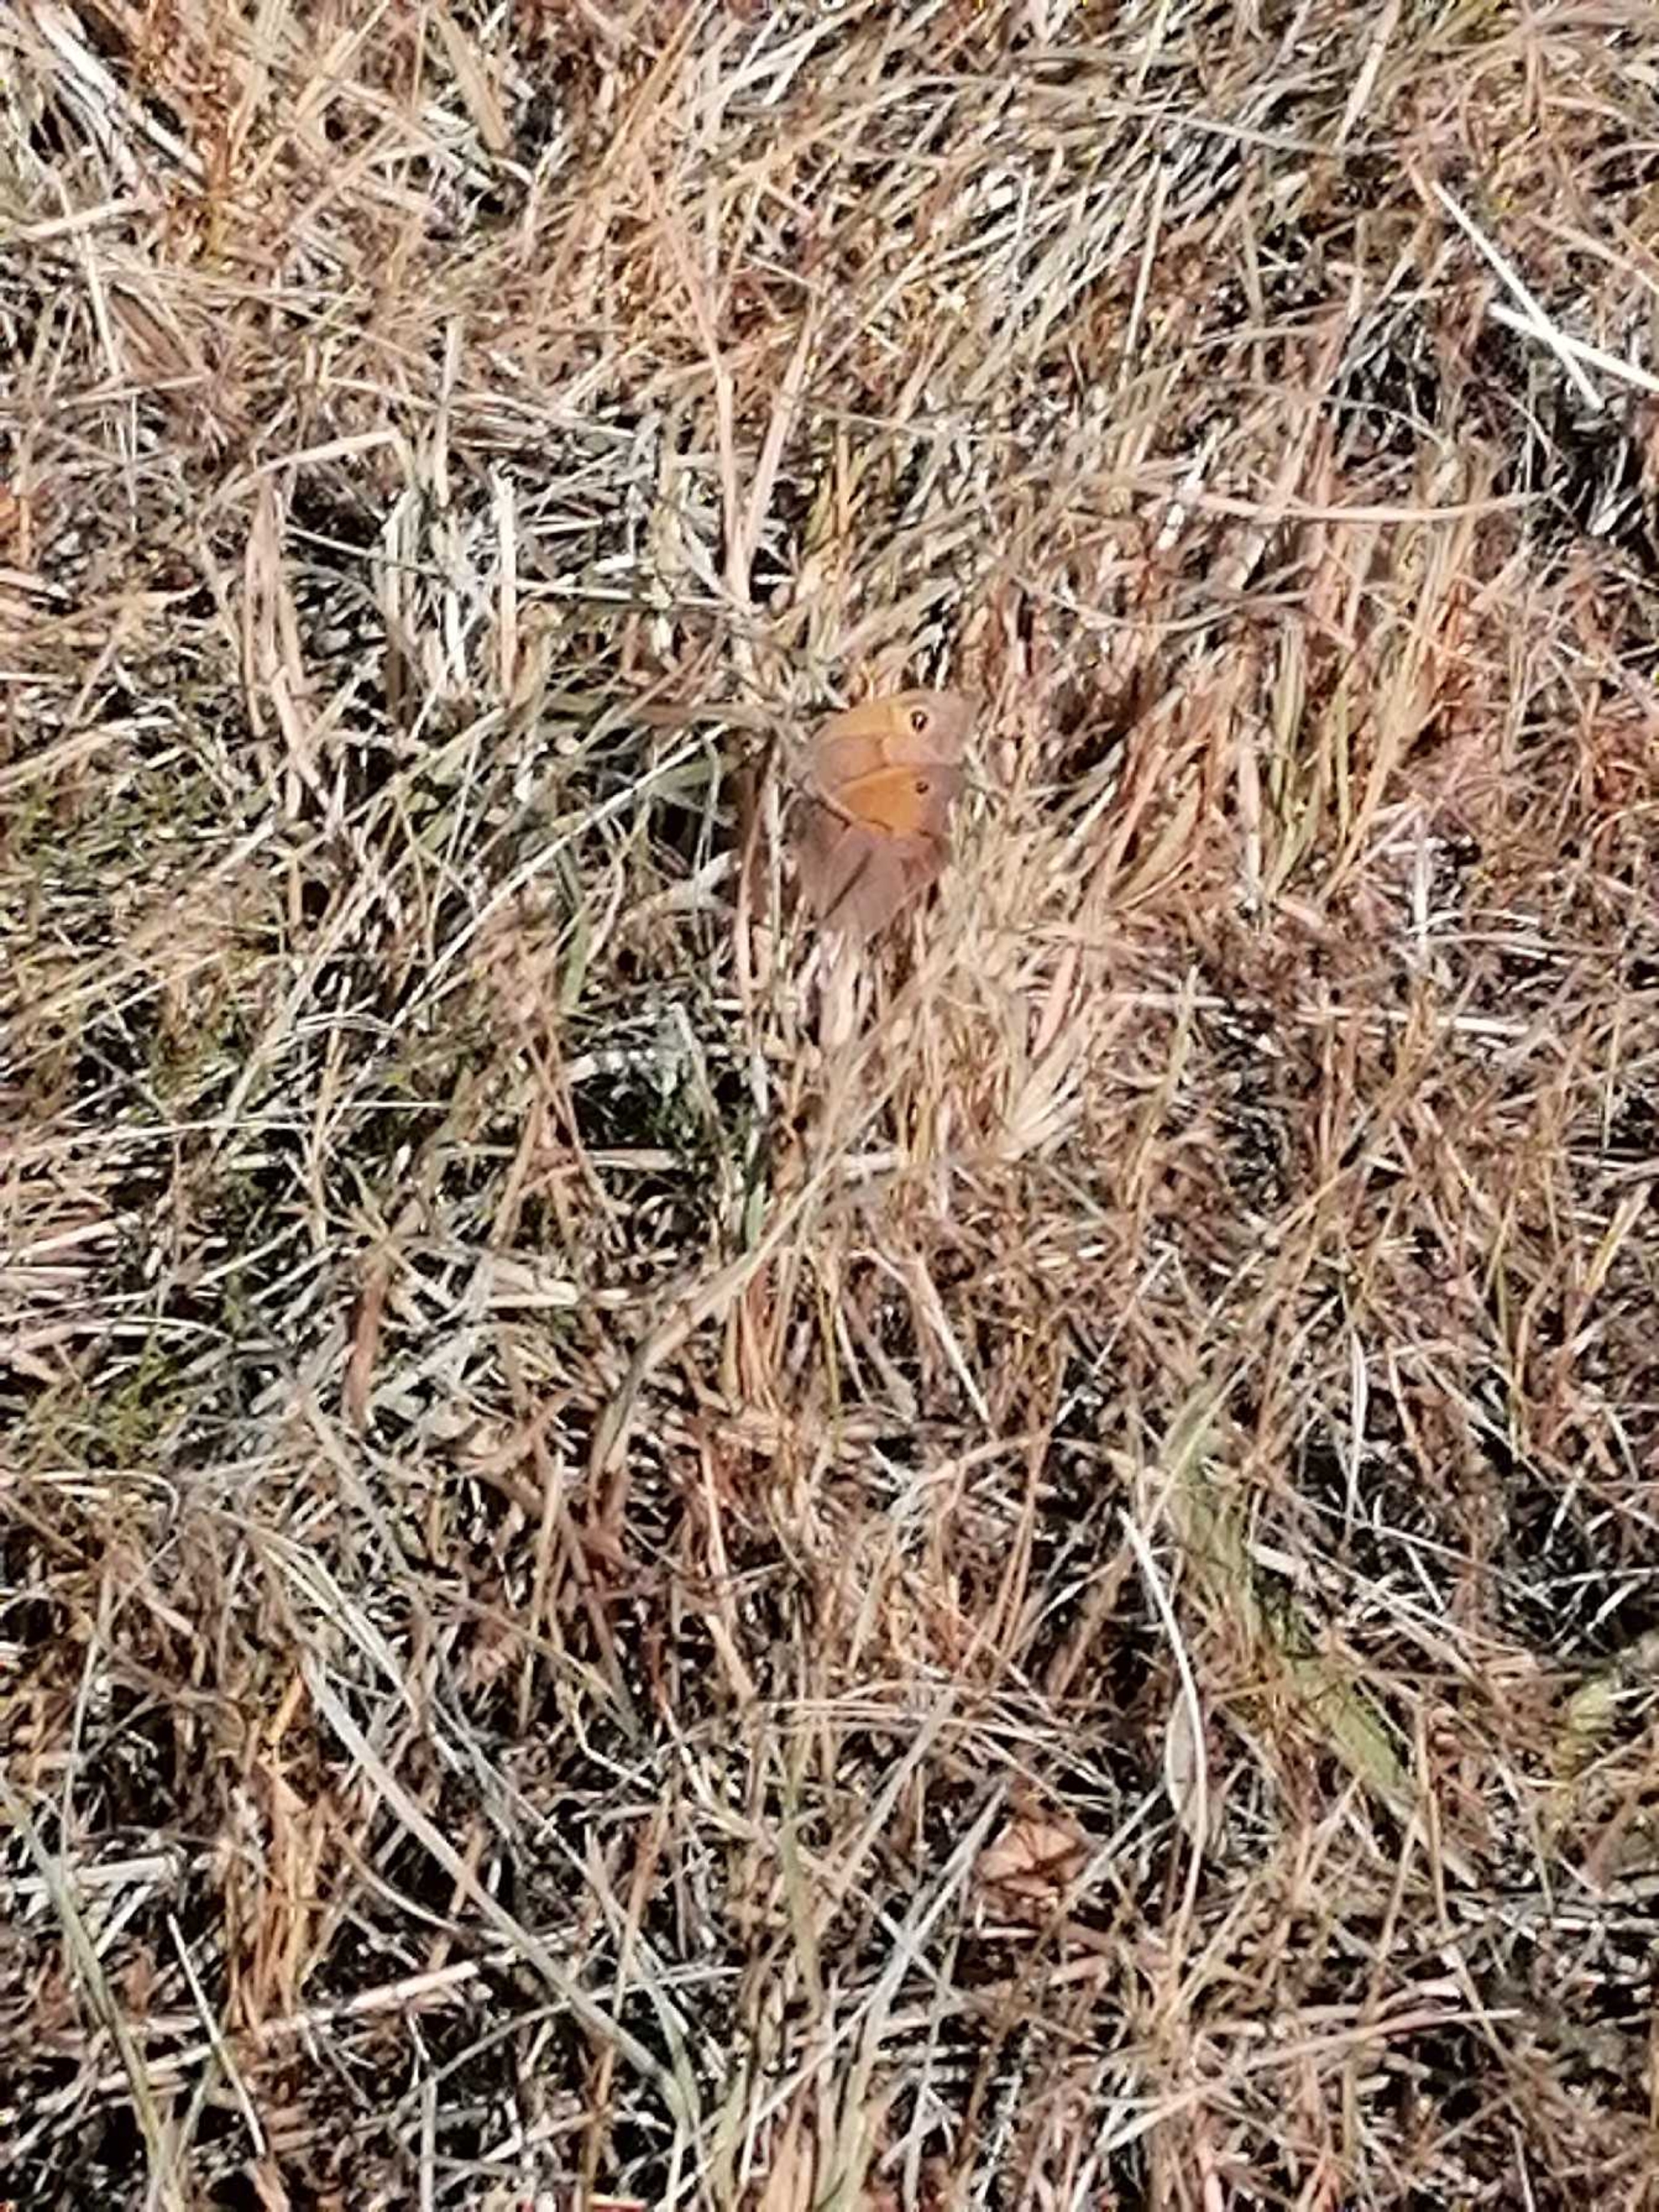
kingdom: Animalia
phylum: Arthropoda
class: Insecta
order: Lepidoptera
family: Nymphalidae
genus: Maniola
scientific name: Maniola jurtina
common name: Græsrandøje
